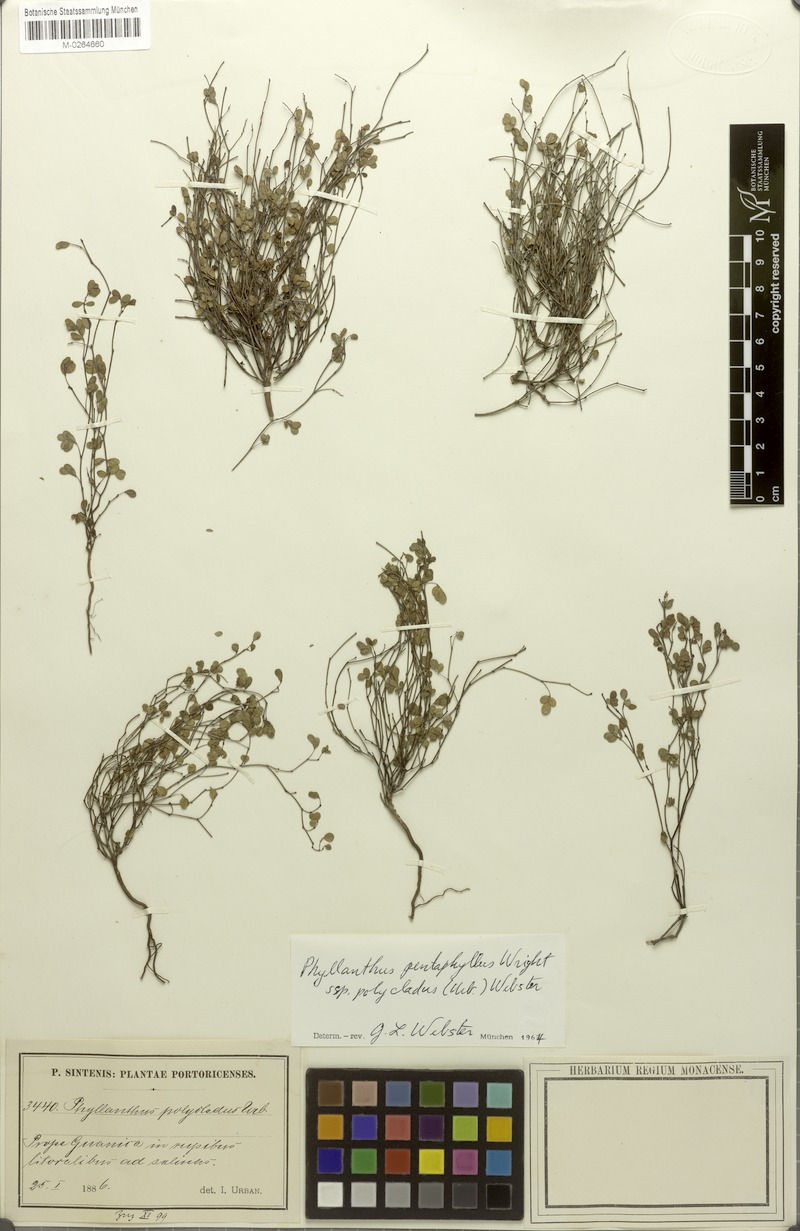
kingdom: Plantae
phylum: Tracheophyta
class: Magnoliopsida
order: Malpighiales
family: Phyllanthaceae
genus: Phyllanthus
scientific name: Phyllanthus pentaphyllus
